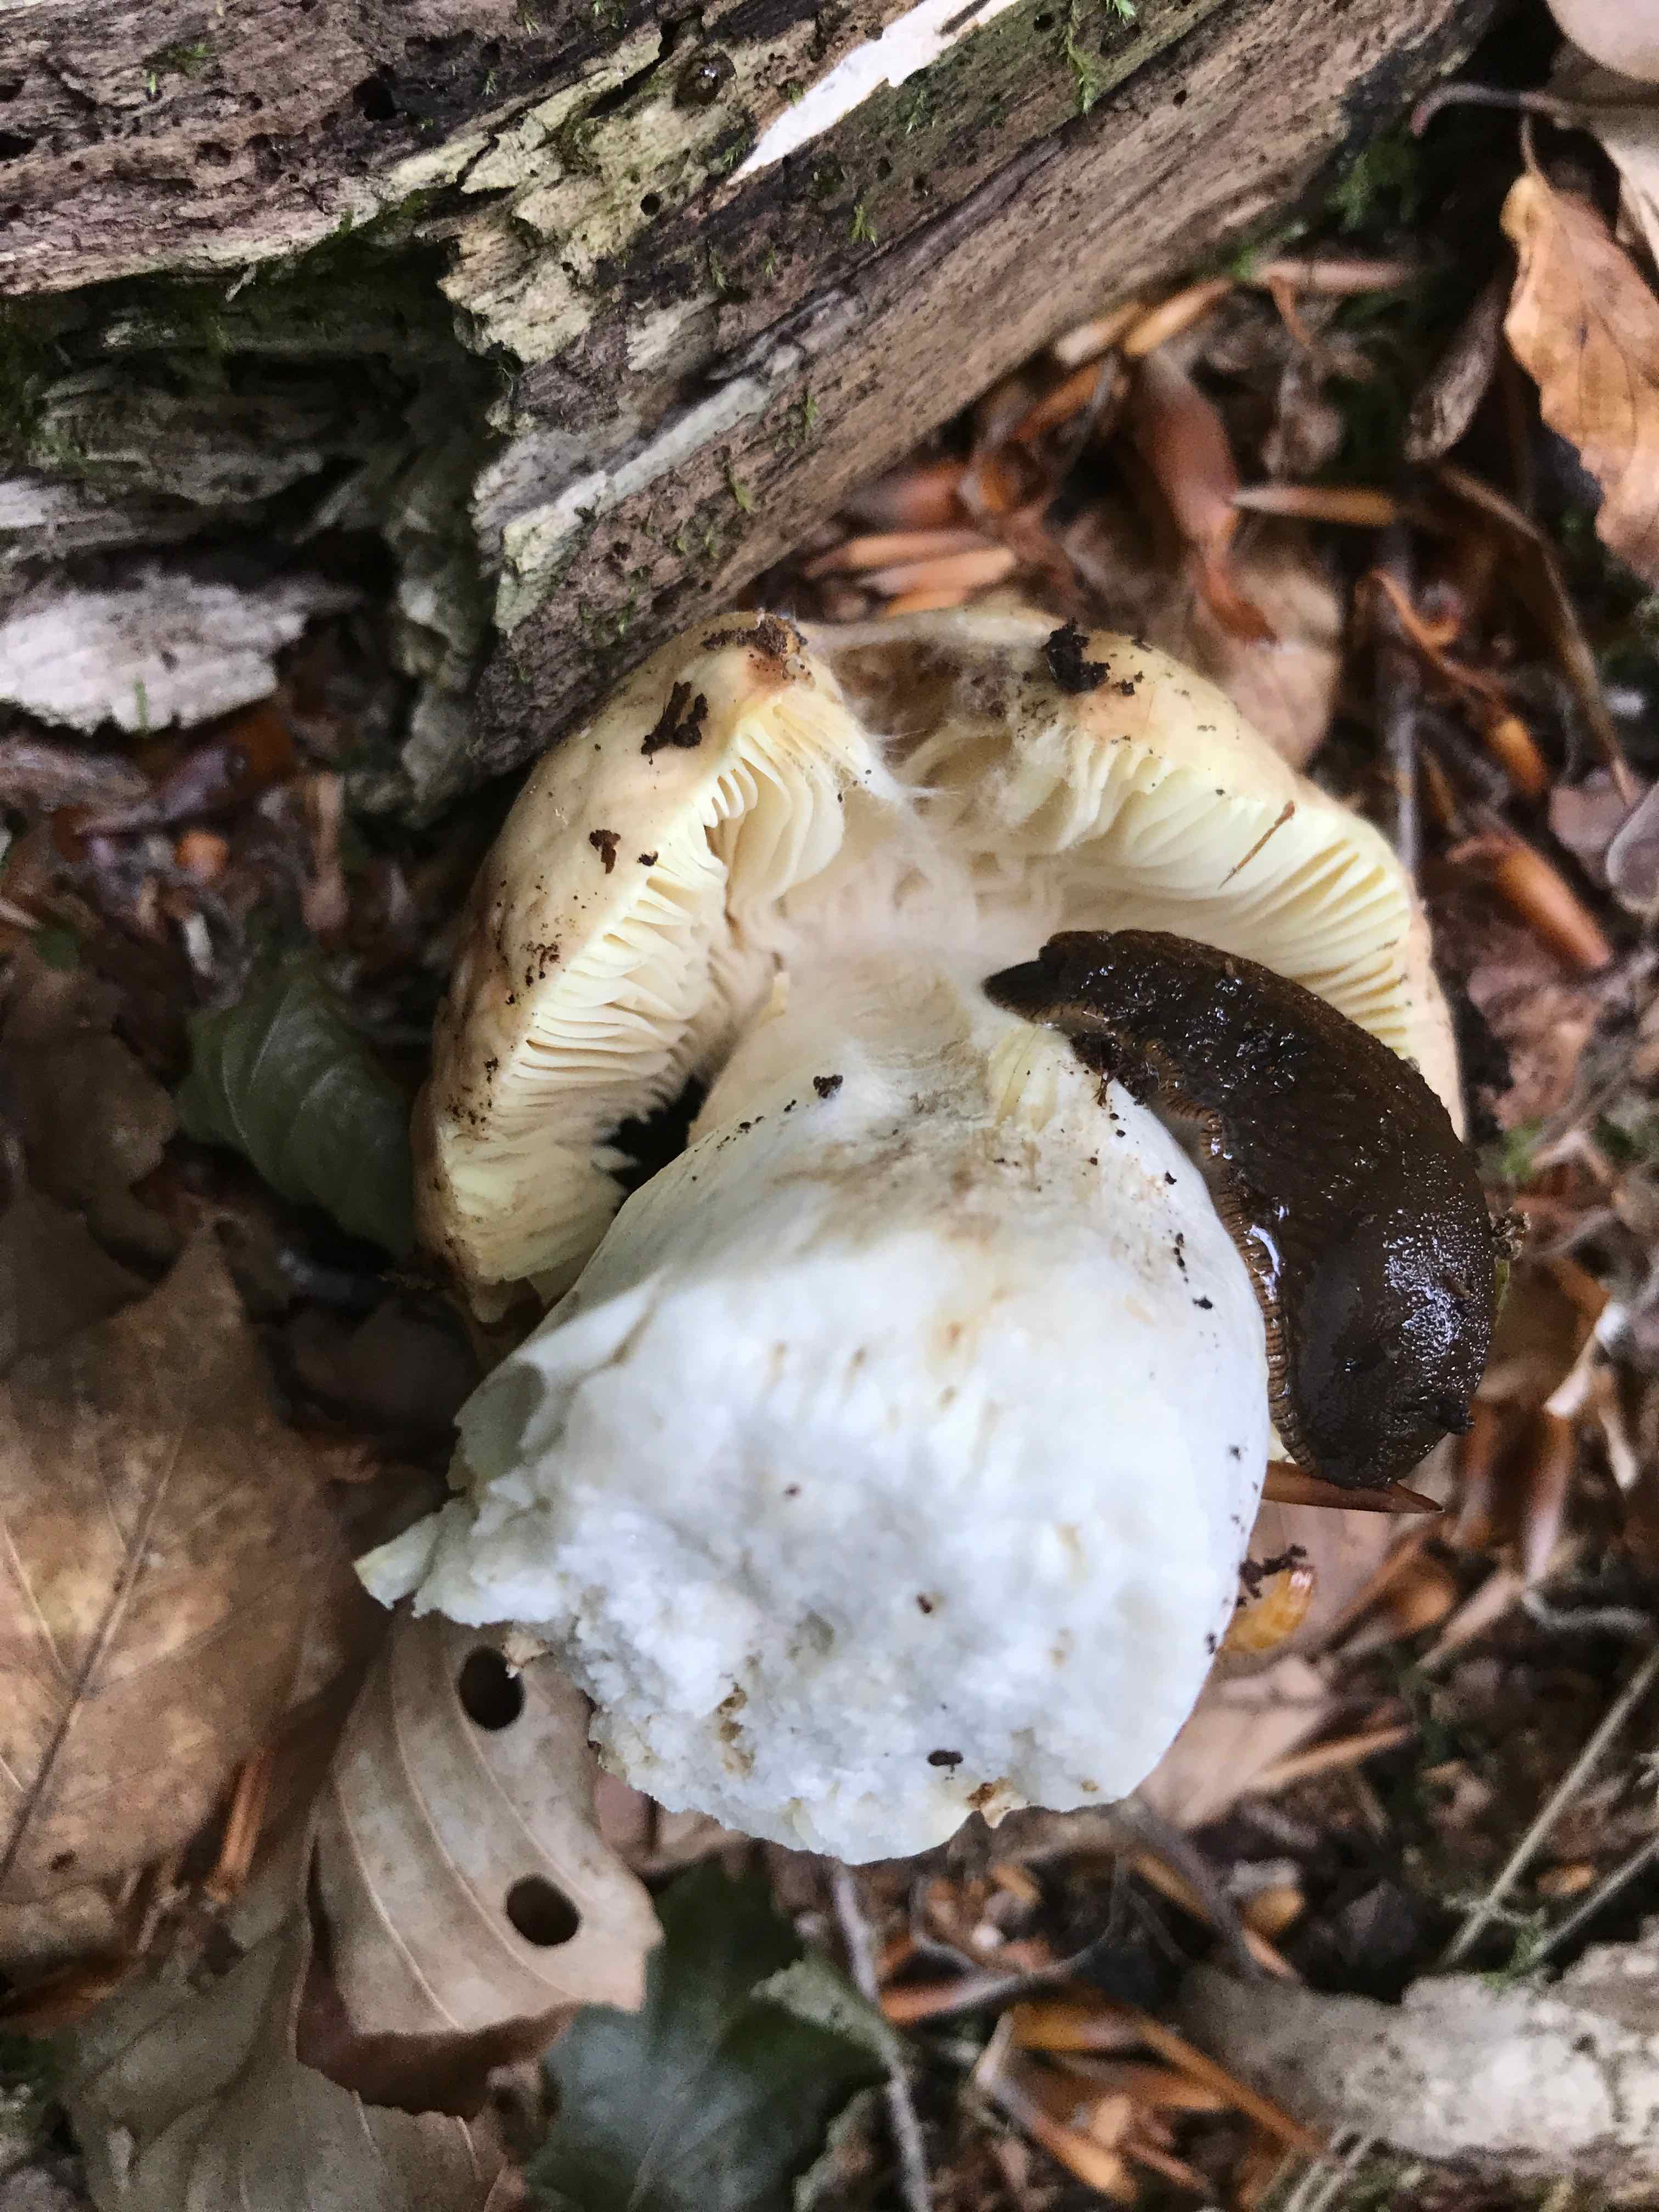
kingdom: Fungi
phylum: Basidiomycota
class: Agaricomycetes
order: Russulales
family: Russulaceae
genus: Russula
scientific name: Russula
